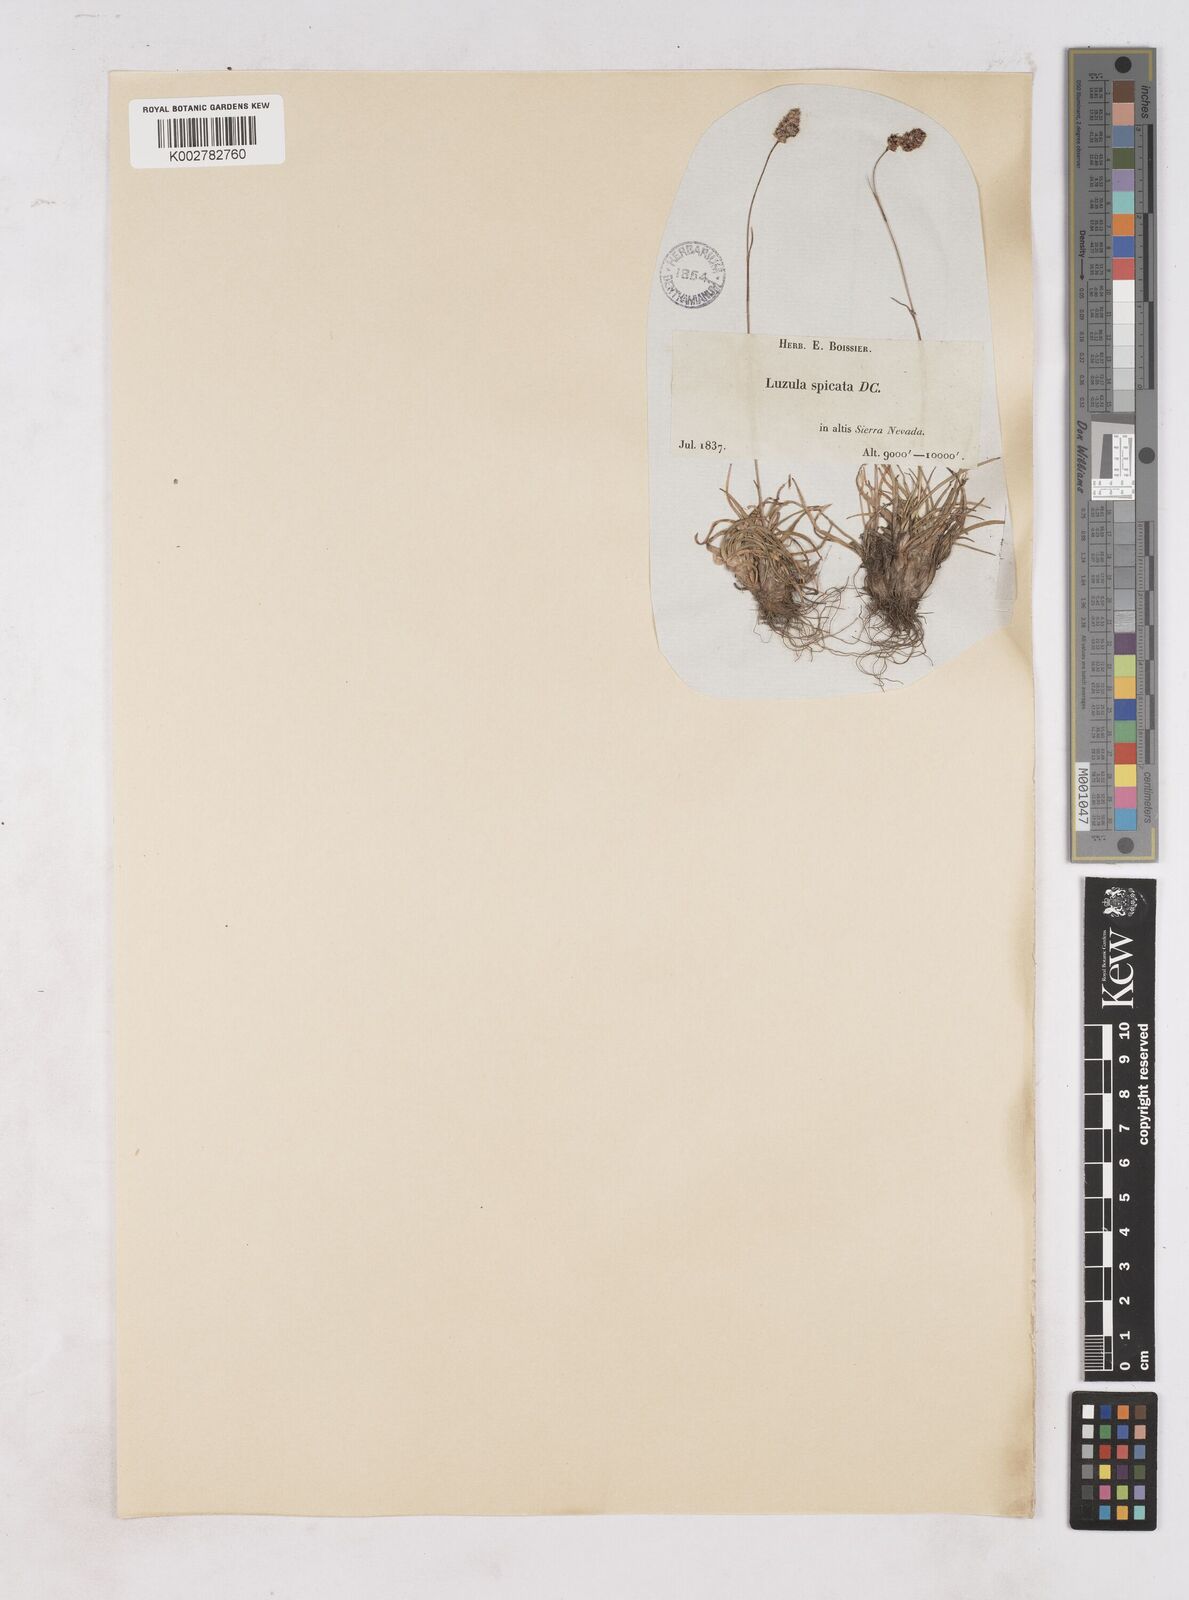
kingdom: Plantae
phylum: Tracheophyta
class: Liliopsida
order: Poales
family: Juncaceae
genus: Luzula
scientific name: Luzula spicata
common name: Spiked wood-rush
